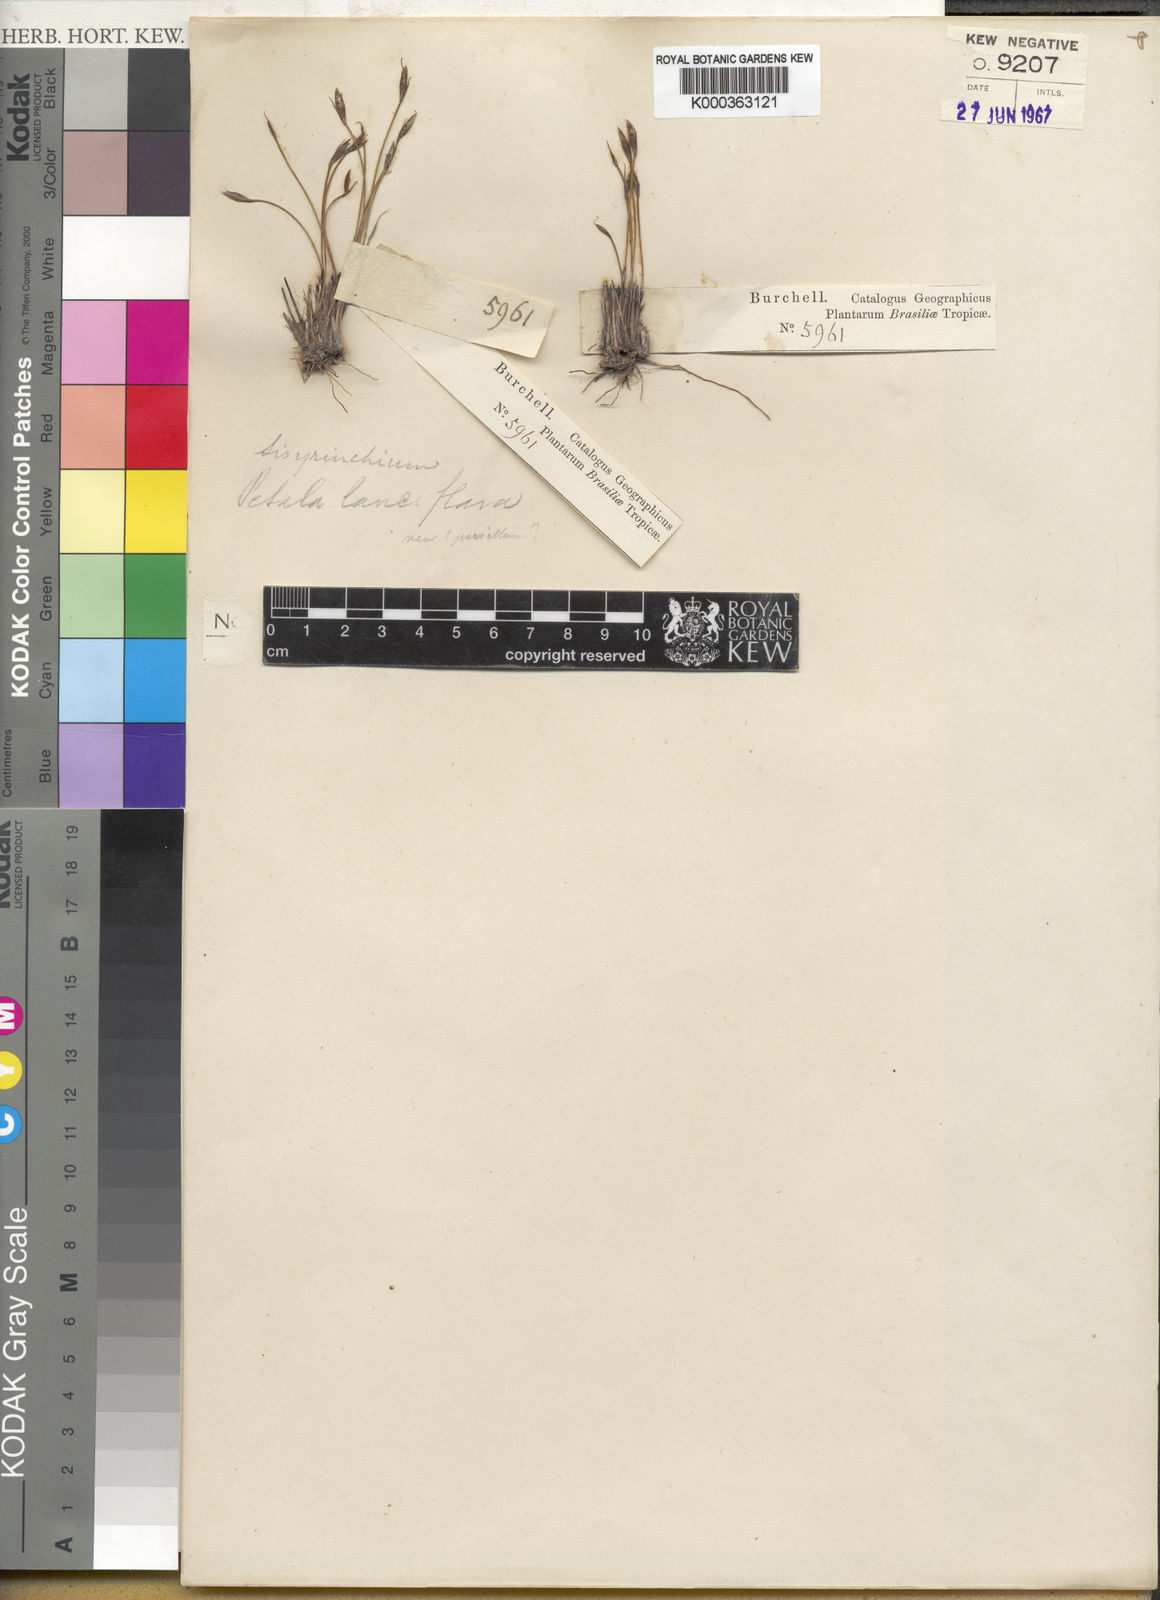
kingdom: Plantae
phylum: Tracheophyta
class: Liliopsida
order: Asparagales
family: Iridaceae
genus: Sisyrinchium
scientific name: Sisyrinchium luzula
